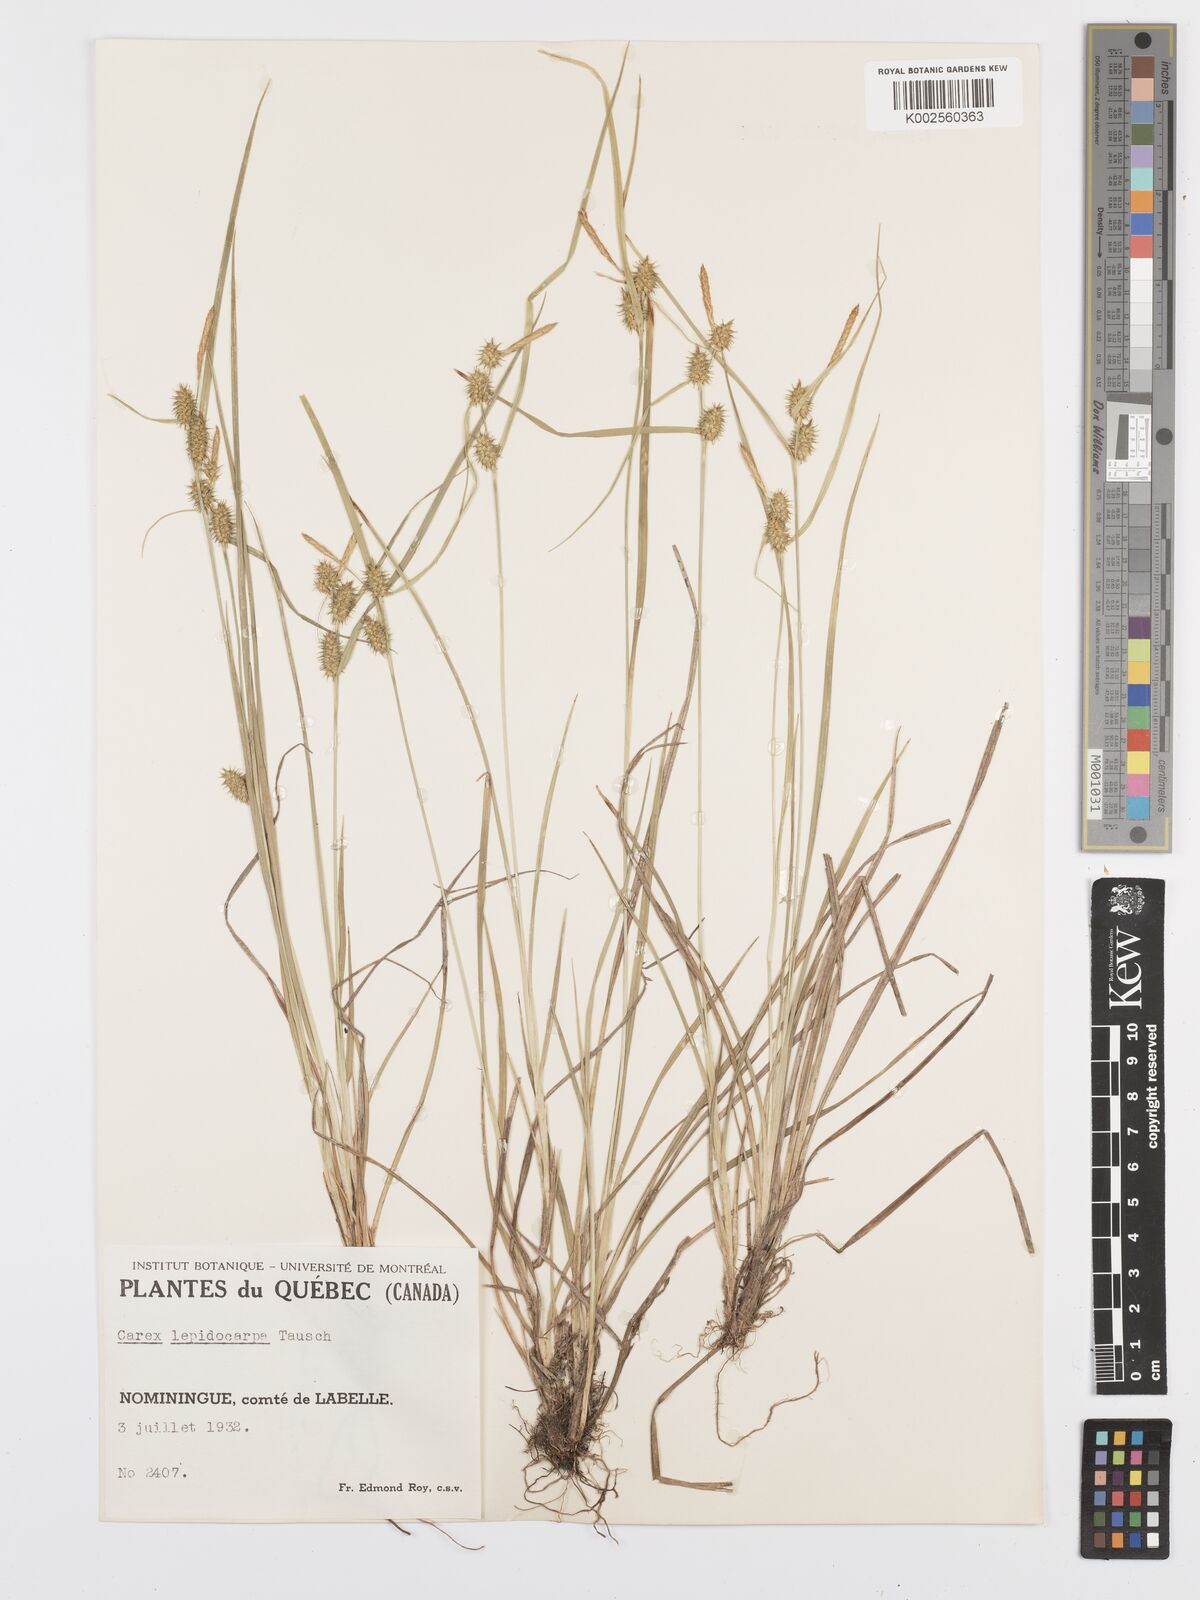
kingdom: Plantae
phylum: Tracheophyta
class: Liliopsida
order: Poales
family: Cyperaceae
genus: Carex
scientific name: Carex lepidocarpa
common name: Long-stalked yellow-sedge
